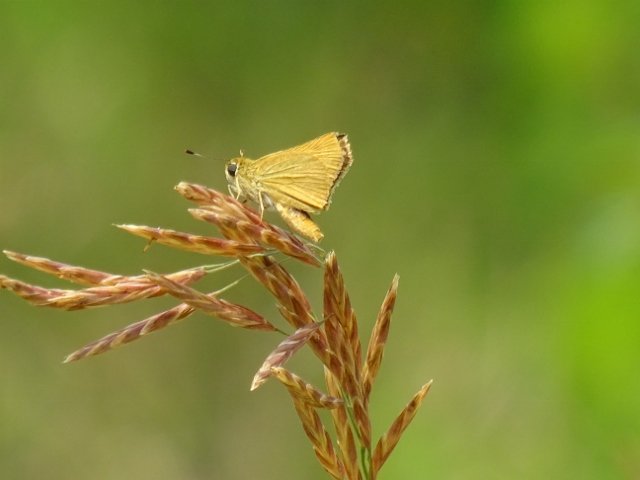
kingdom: Animalia
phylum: Arthropoda
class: Insecta
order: Lepidoptera
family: Hesperiidae
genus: Atrytone
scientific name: Atrytone delaware
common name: Delaware Skipper
